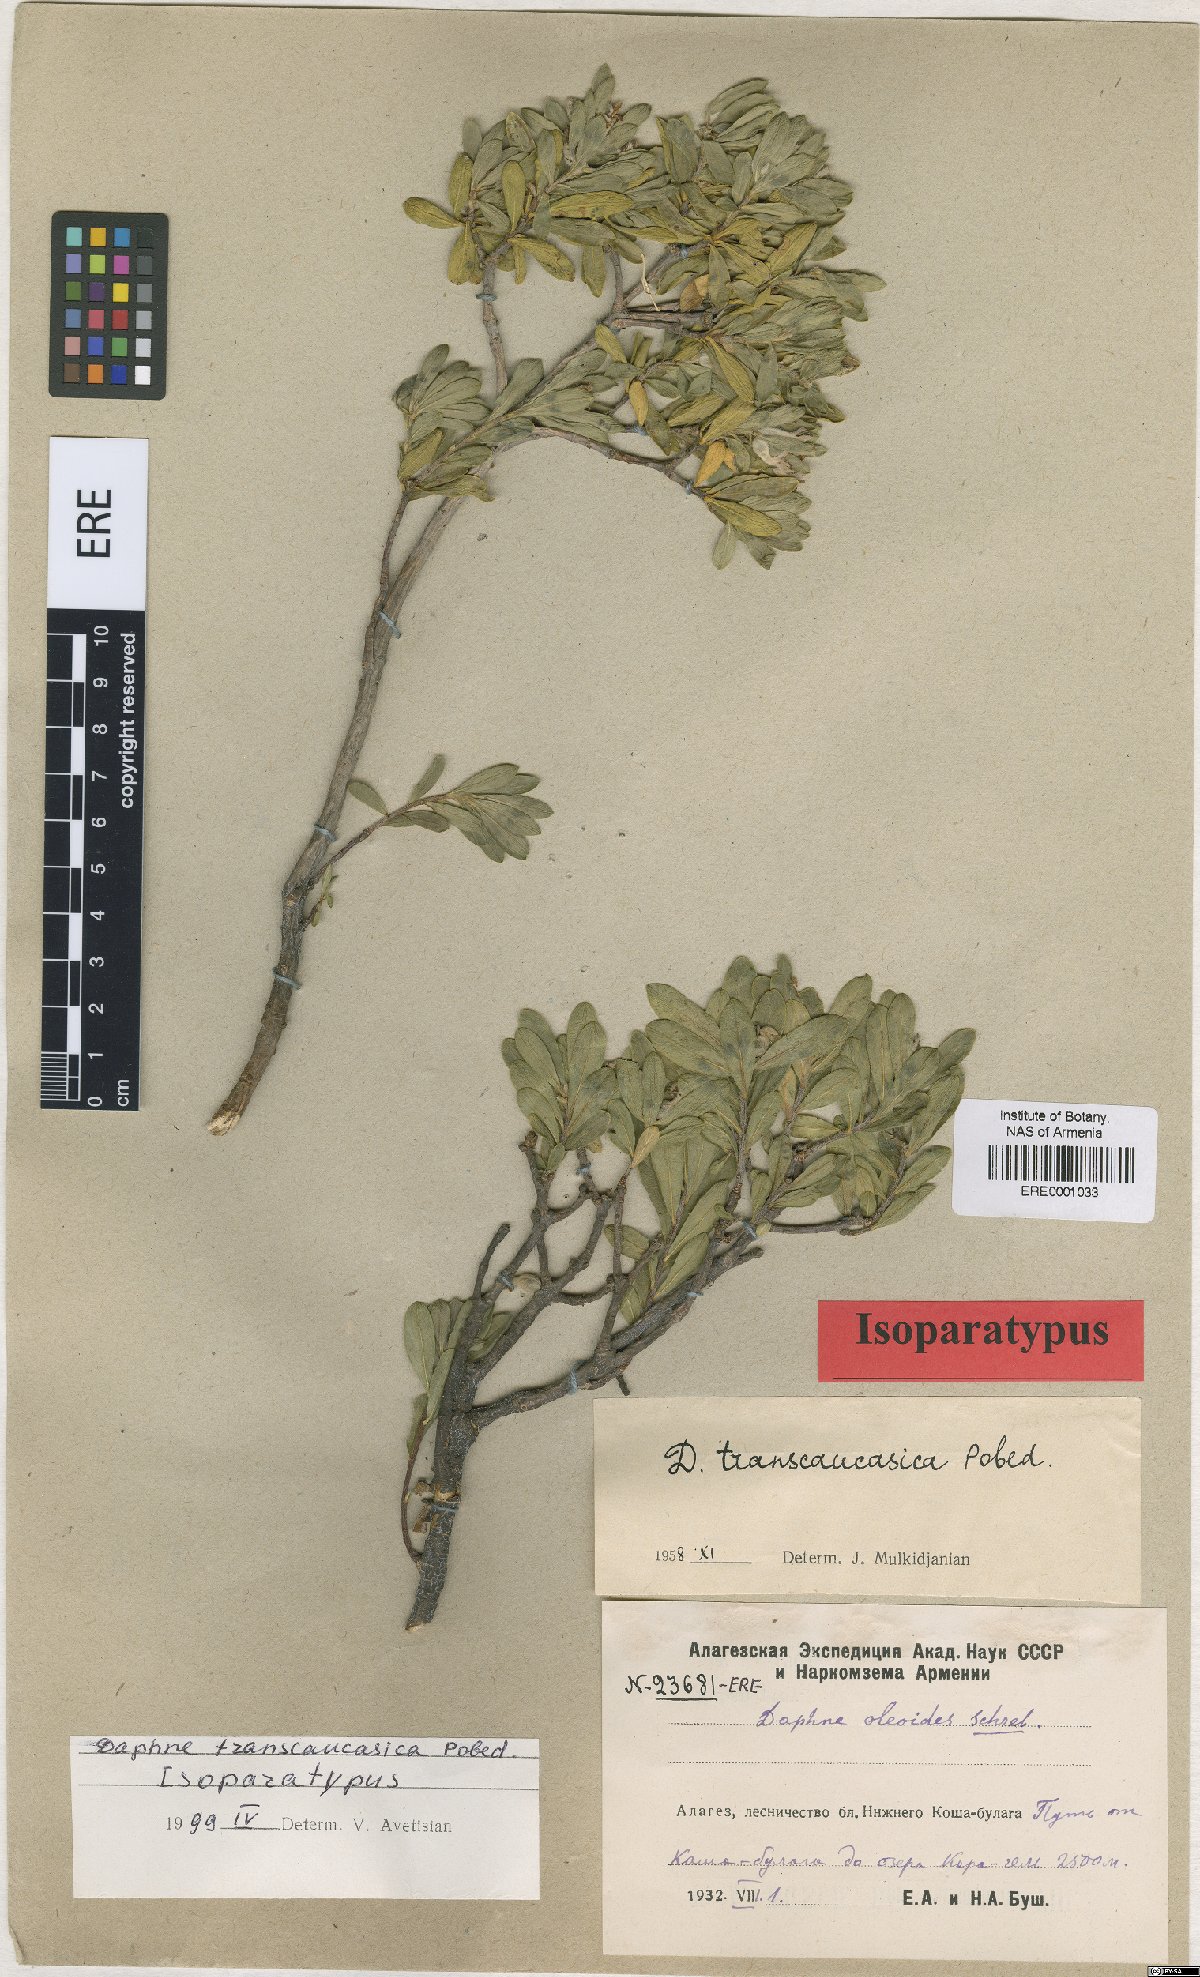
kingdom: Plantae
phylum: Tracheophyta
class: Magnoliopsida
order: Malvales
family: Thymelaeaceae
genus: Daphne
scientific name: Daphne kurdica
